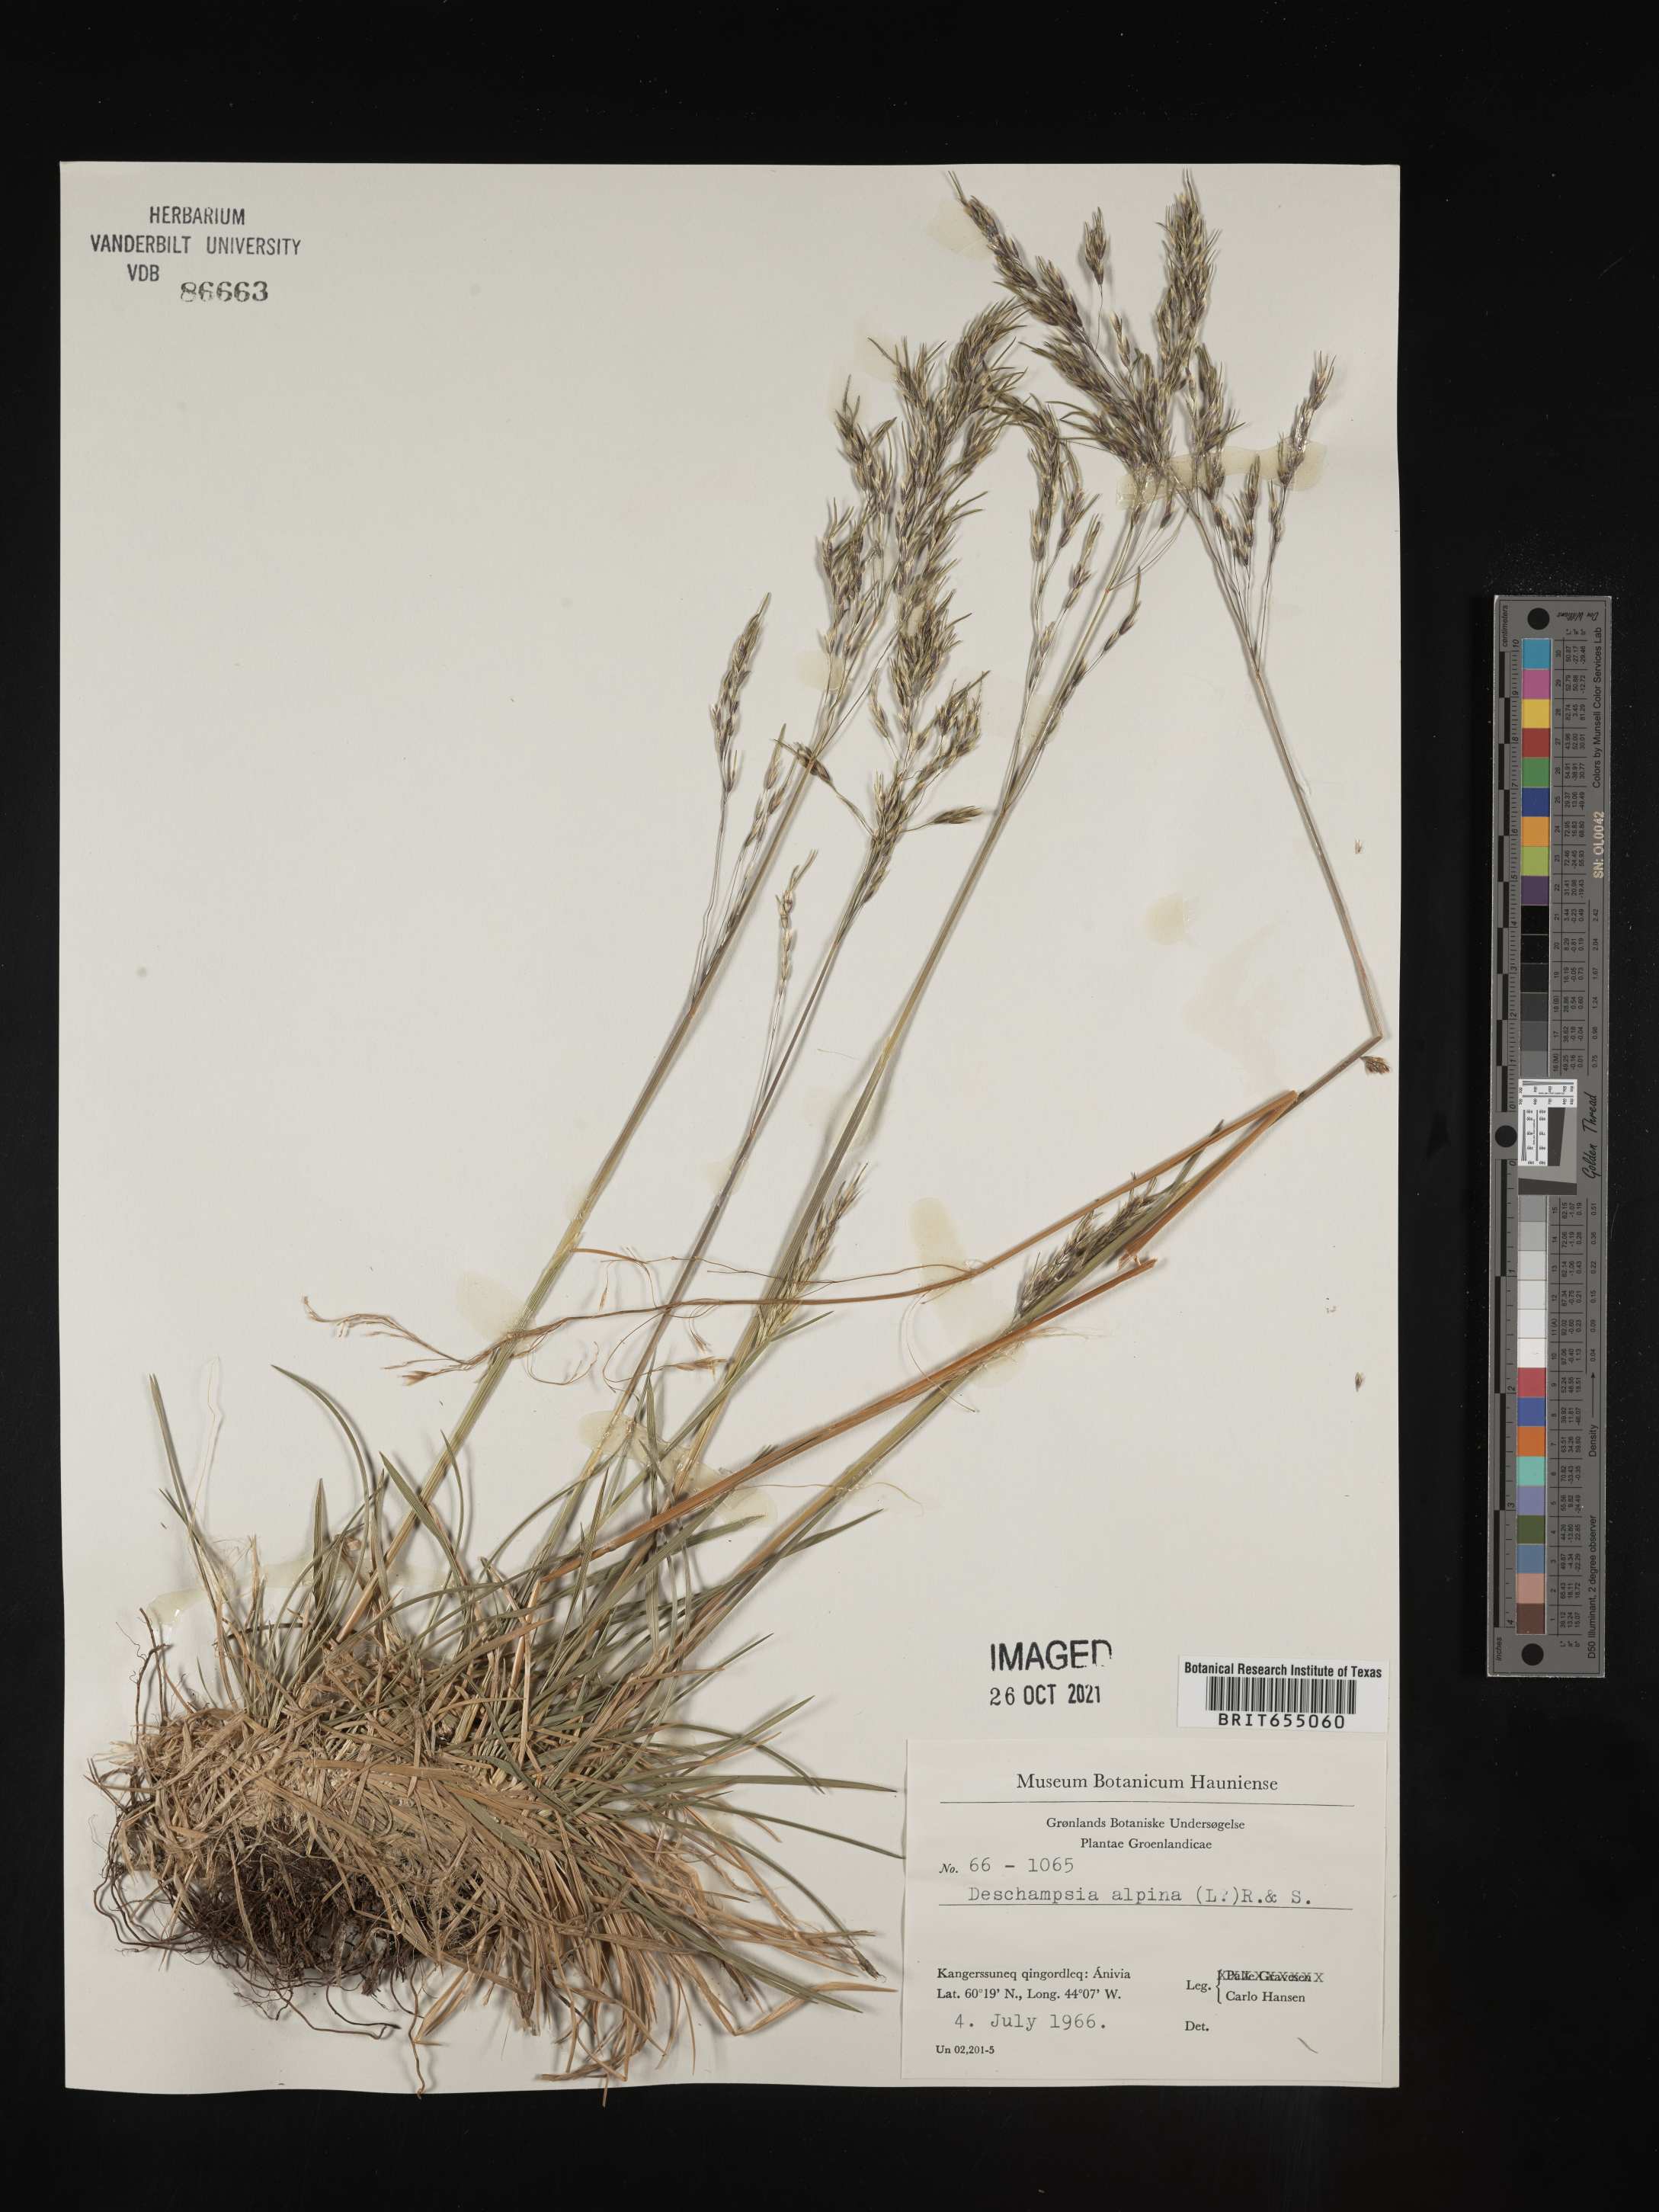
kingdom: Plantae
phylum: Tracheophyta
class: Liliopsida
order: Poales
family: Poaceae
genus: Deschampsia
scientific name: Deschampsia
